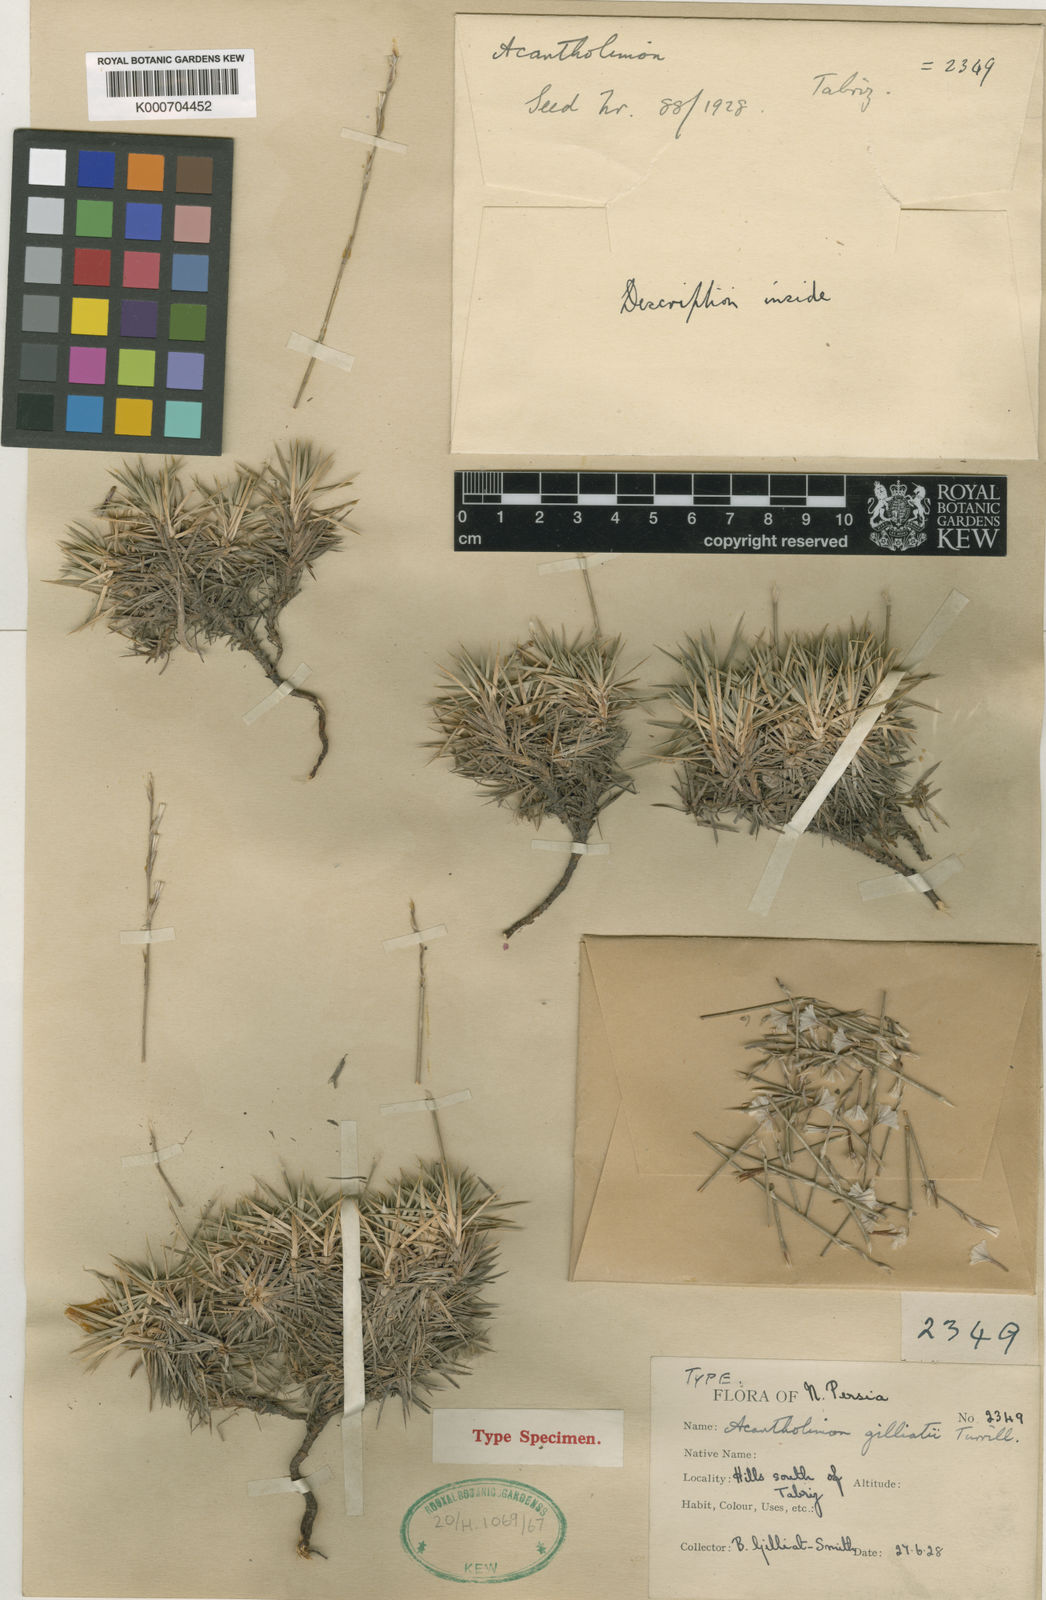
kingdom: Plantae
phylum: Tracheophyta
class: Magnoliopsida
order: Caryophyllales
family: Plumbaginaceae
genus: Acantholimon
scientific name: Acantholimon gilliatii
